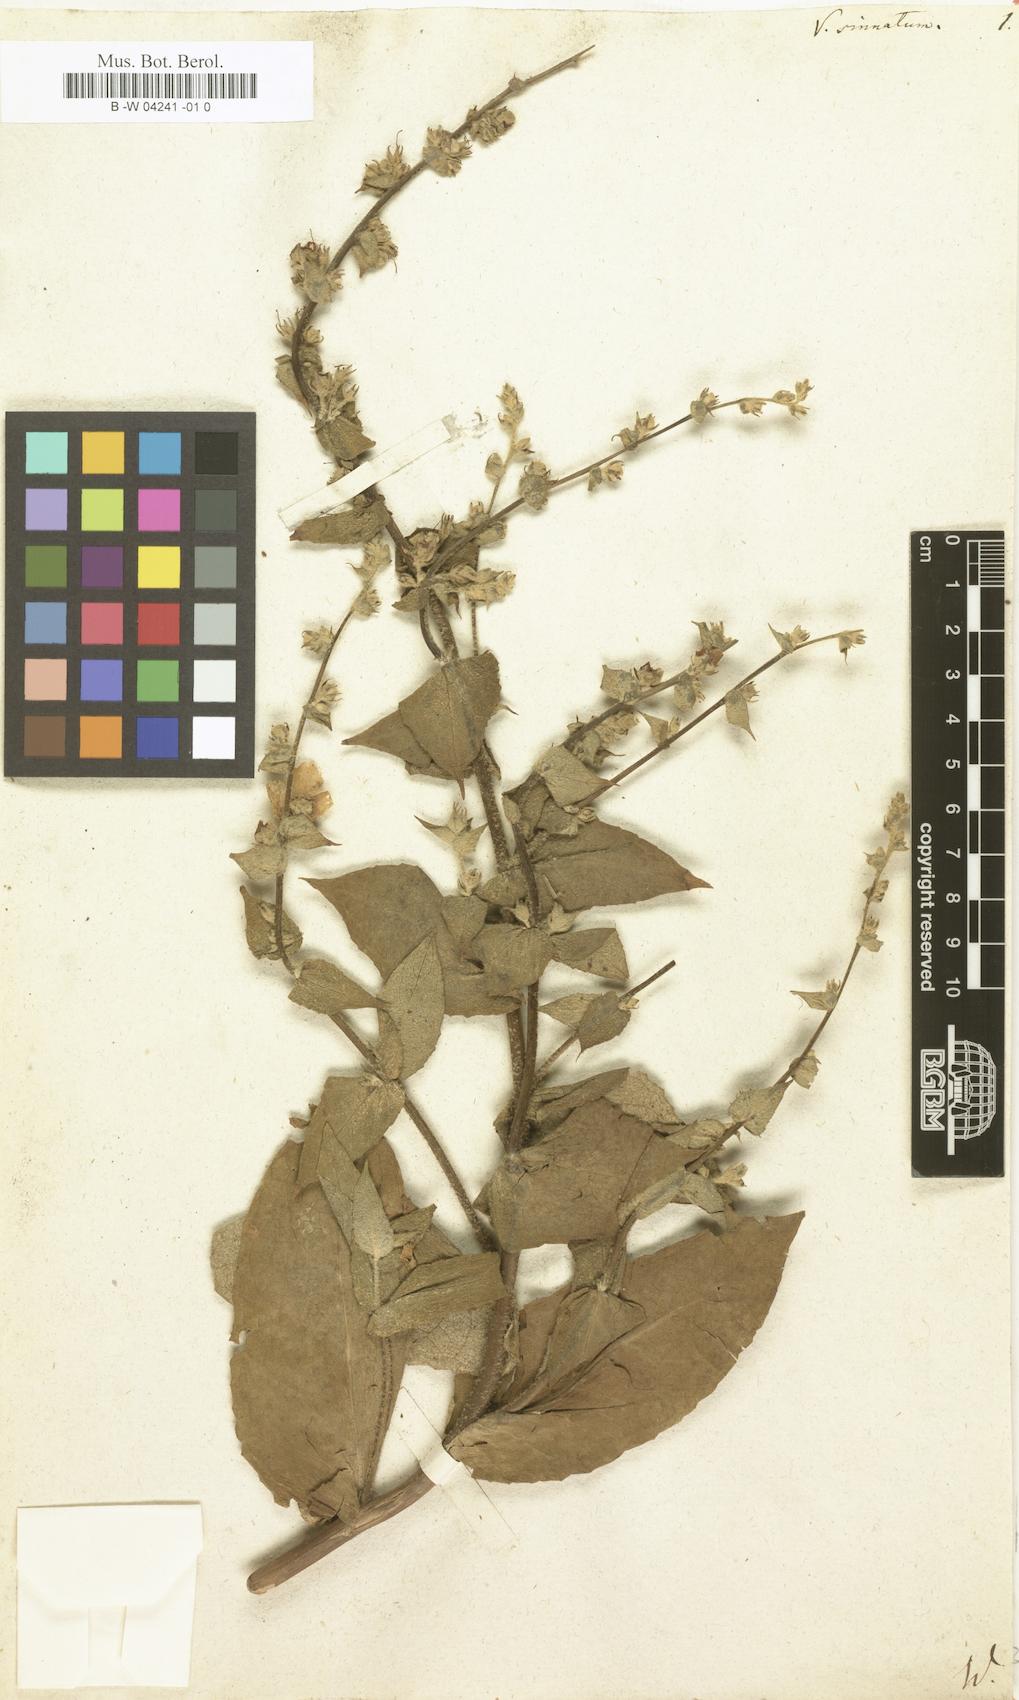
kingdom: Plantae
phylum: Tracheophyta
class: Magnoliopsida
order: Lamiales
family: Scrophulariaceae
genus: Verbascum
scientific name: Verbascum sinuatum
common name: Wavyleaf mullein
